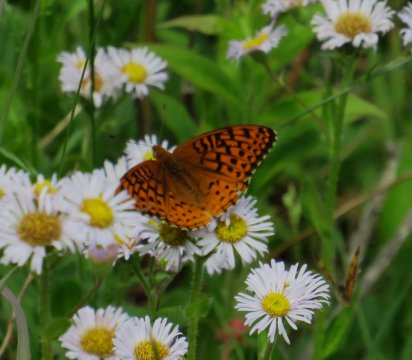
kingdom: Animalia
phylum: Arthropoda
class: Insecta
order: Lepidoptera
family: Nymphalidae
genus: Speyeria
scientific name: Speyeria atlantis
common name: Atlantis Fritillary
